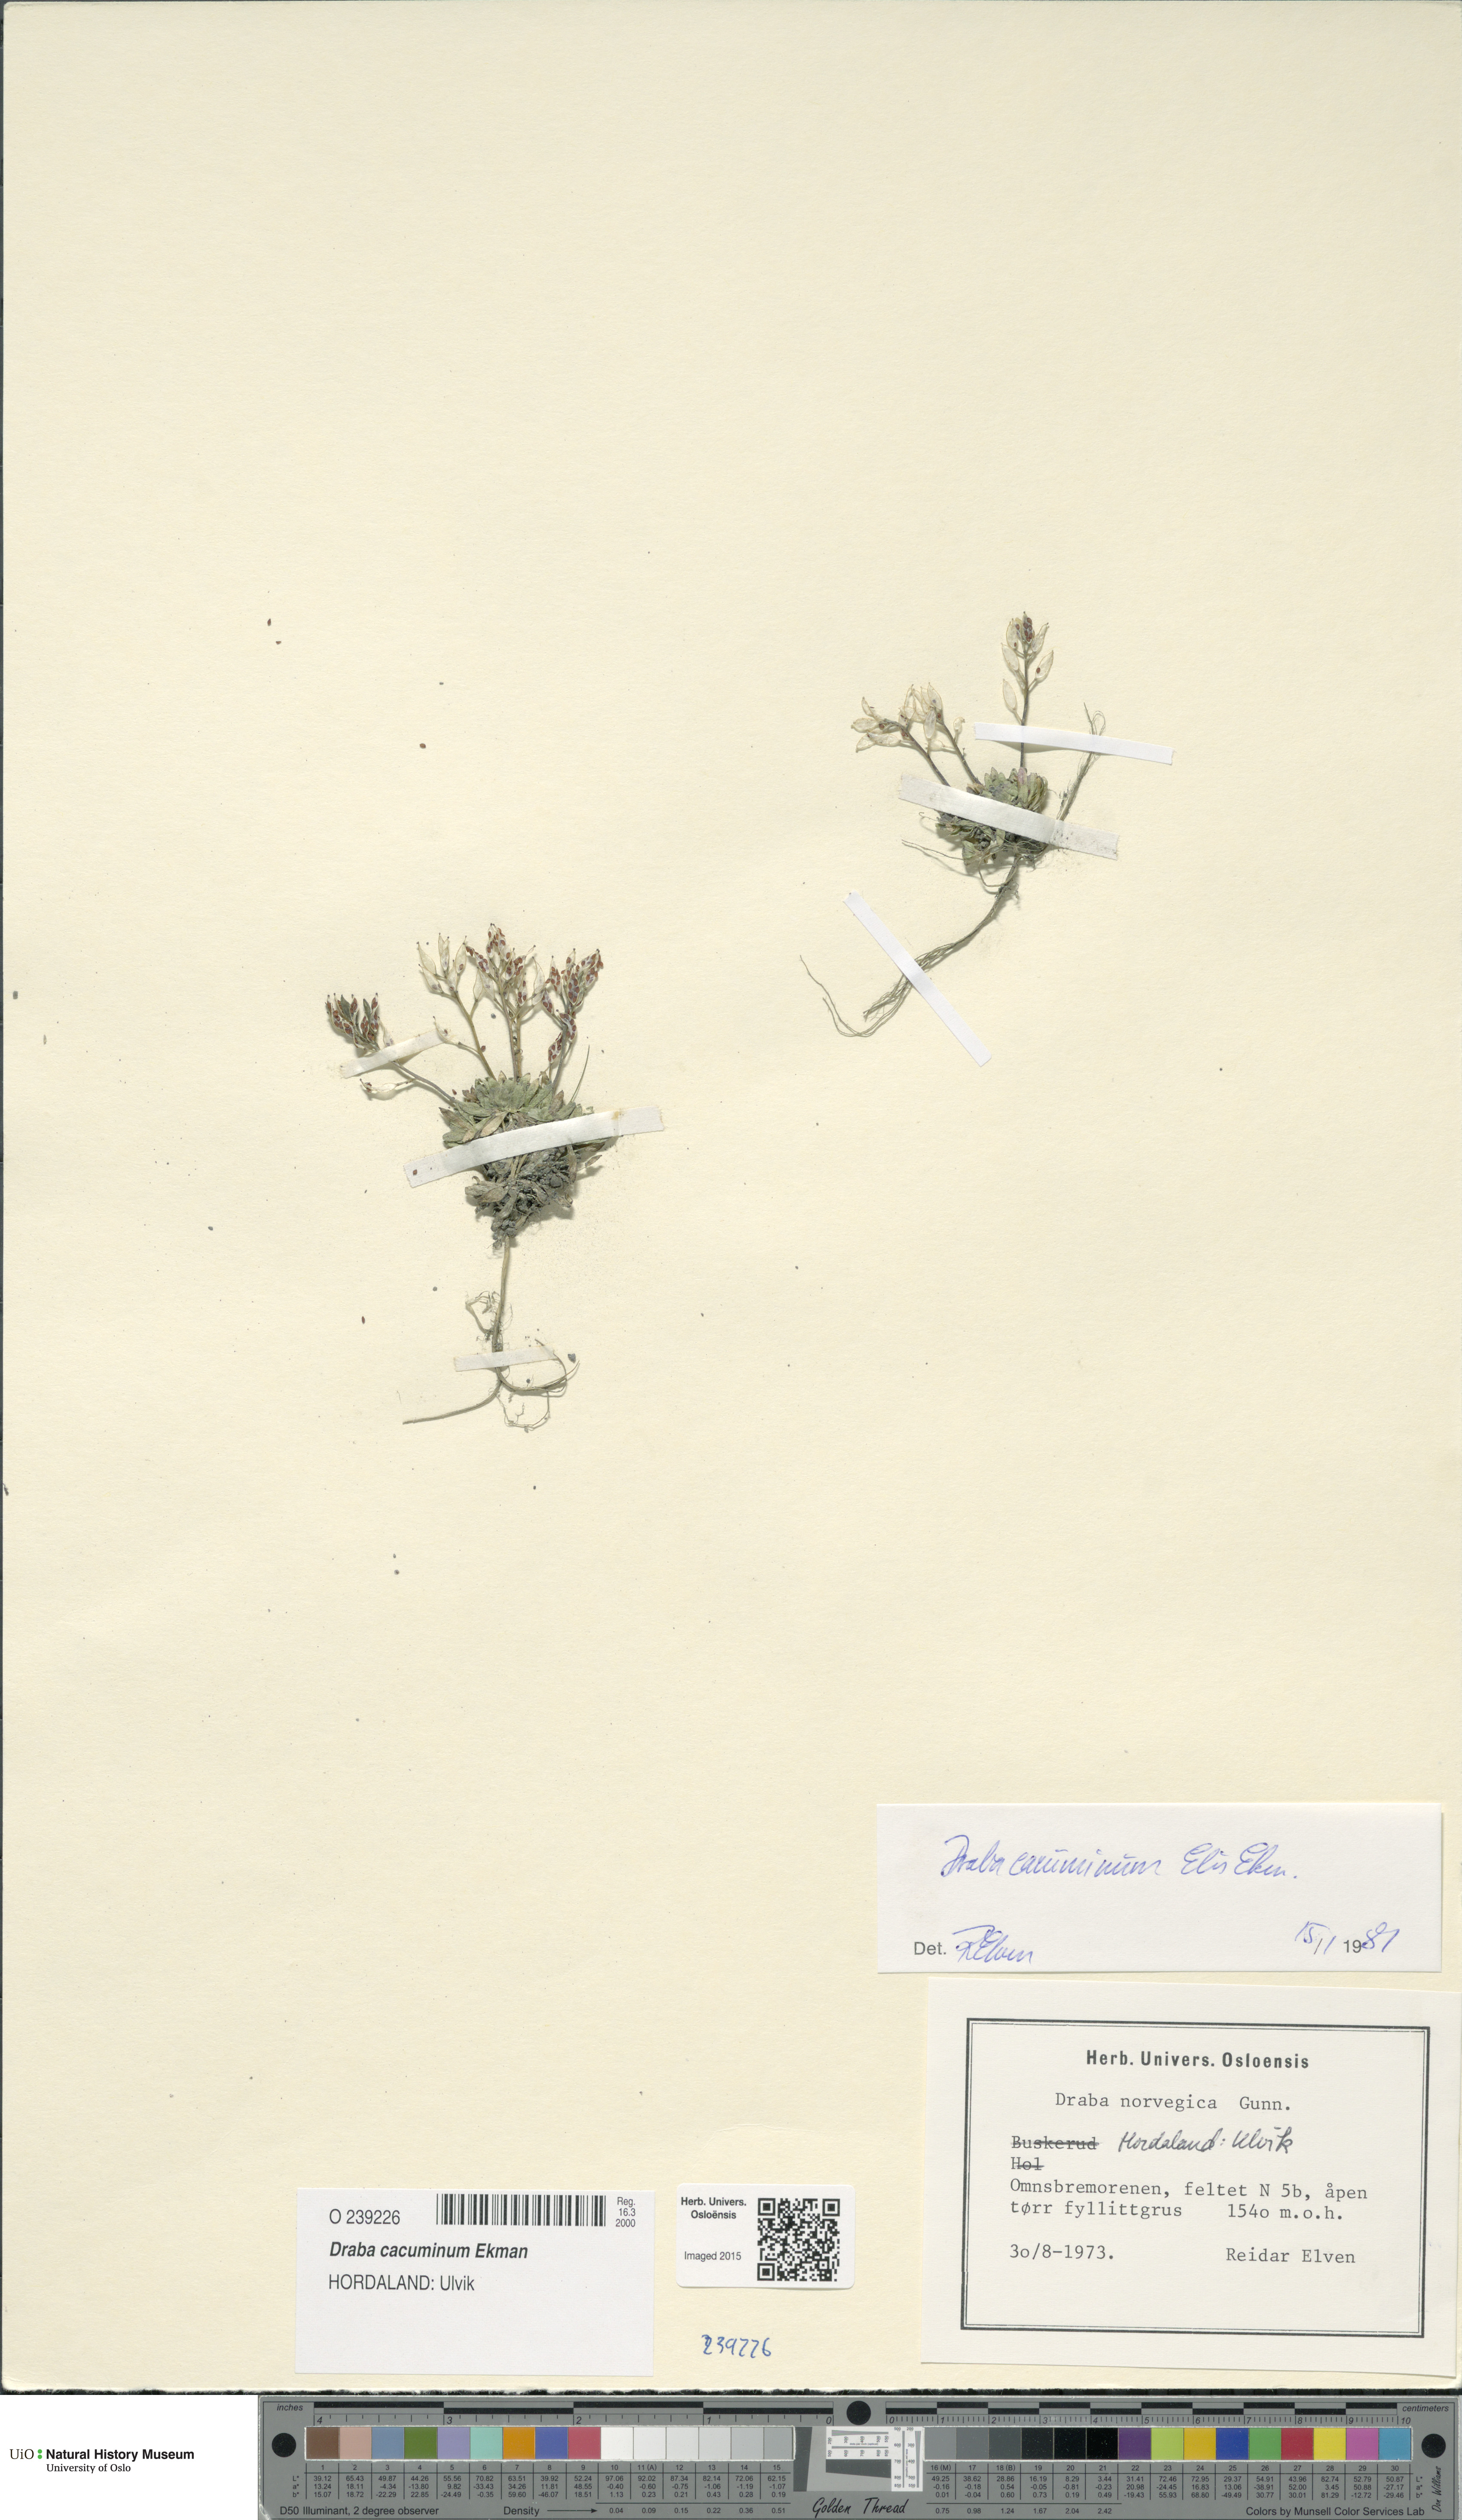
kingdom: Plantae
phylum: Tracheophyta
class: Magnoliopsida
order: Brassicales
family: Brassicaceae
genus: Draba
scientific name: Draba cacuminum
